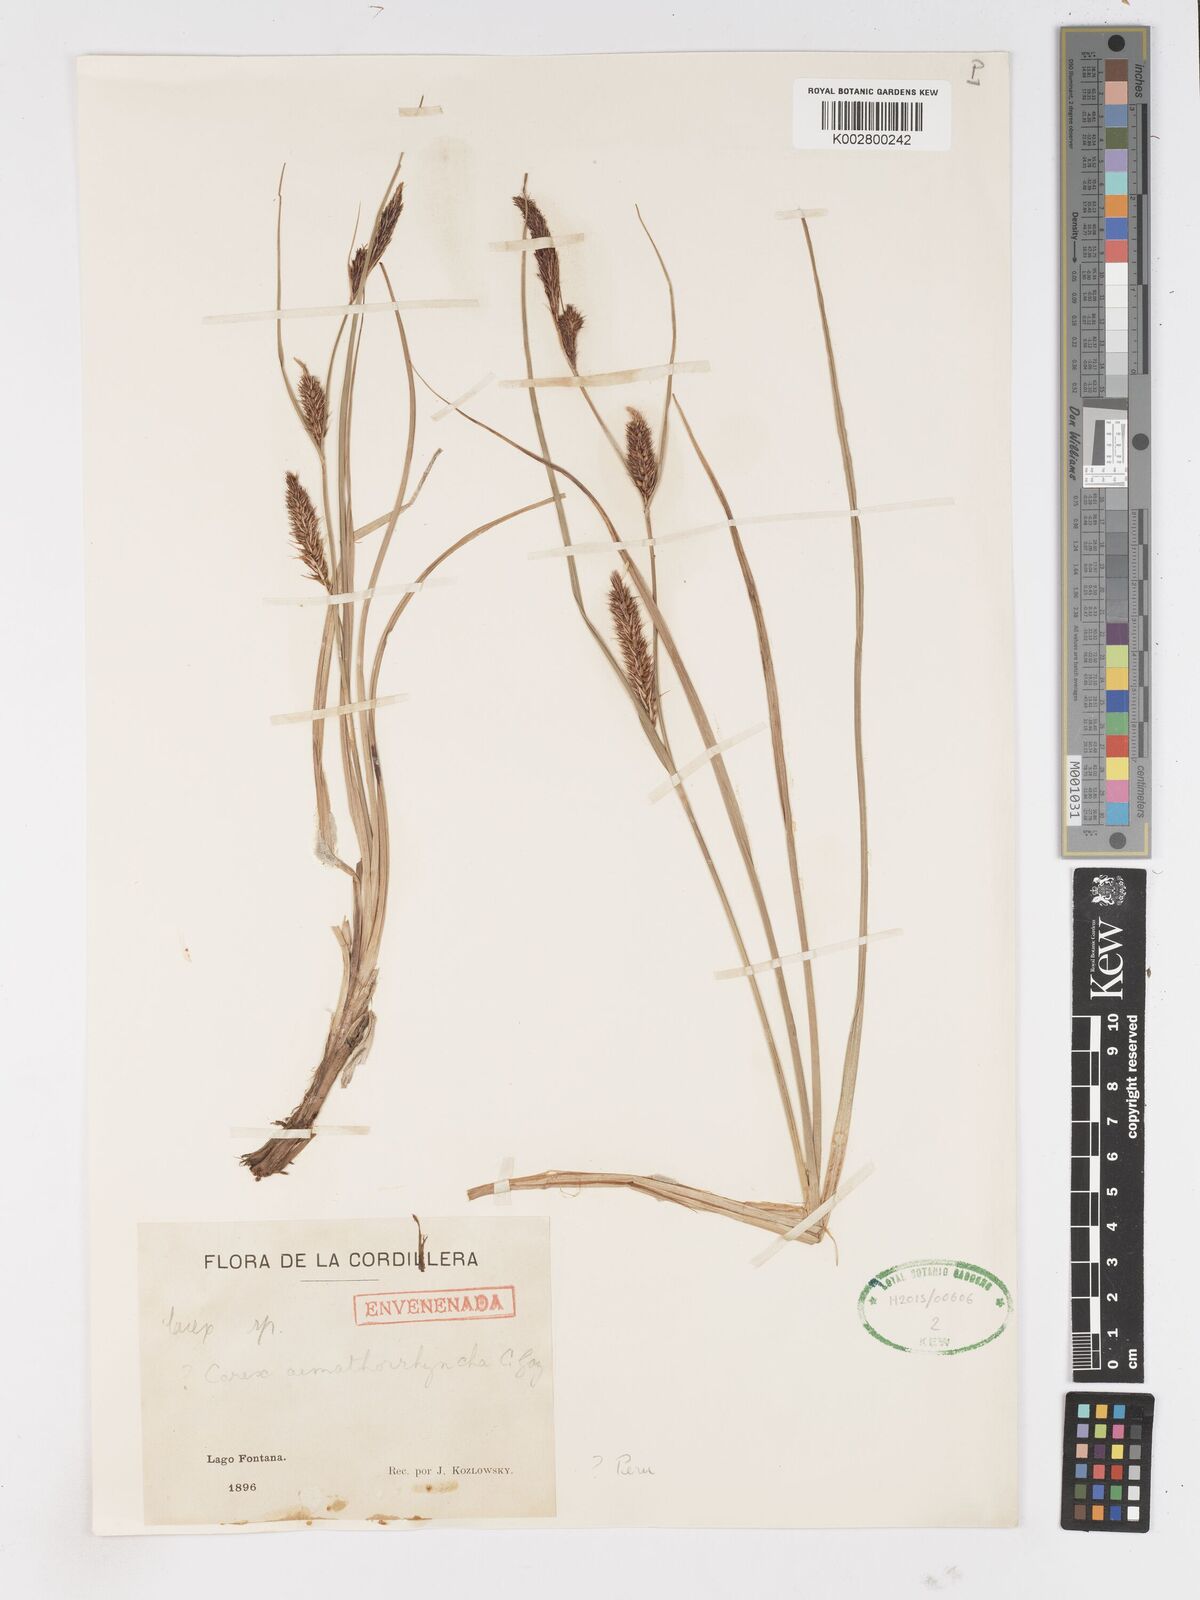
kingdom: Plantae
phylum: Tracheophyta
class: Liliopsida
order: Poales
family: Cyperaceae
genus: Carex
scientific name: Carex
